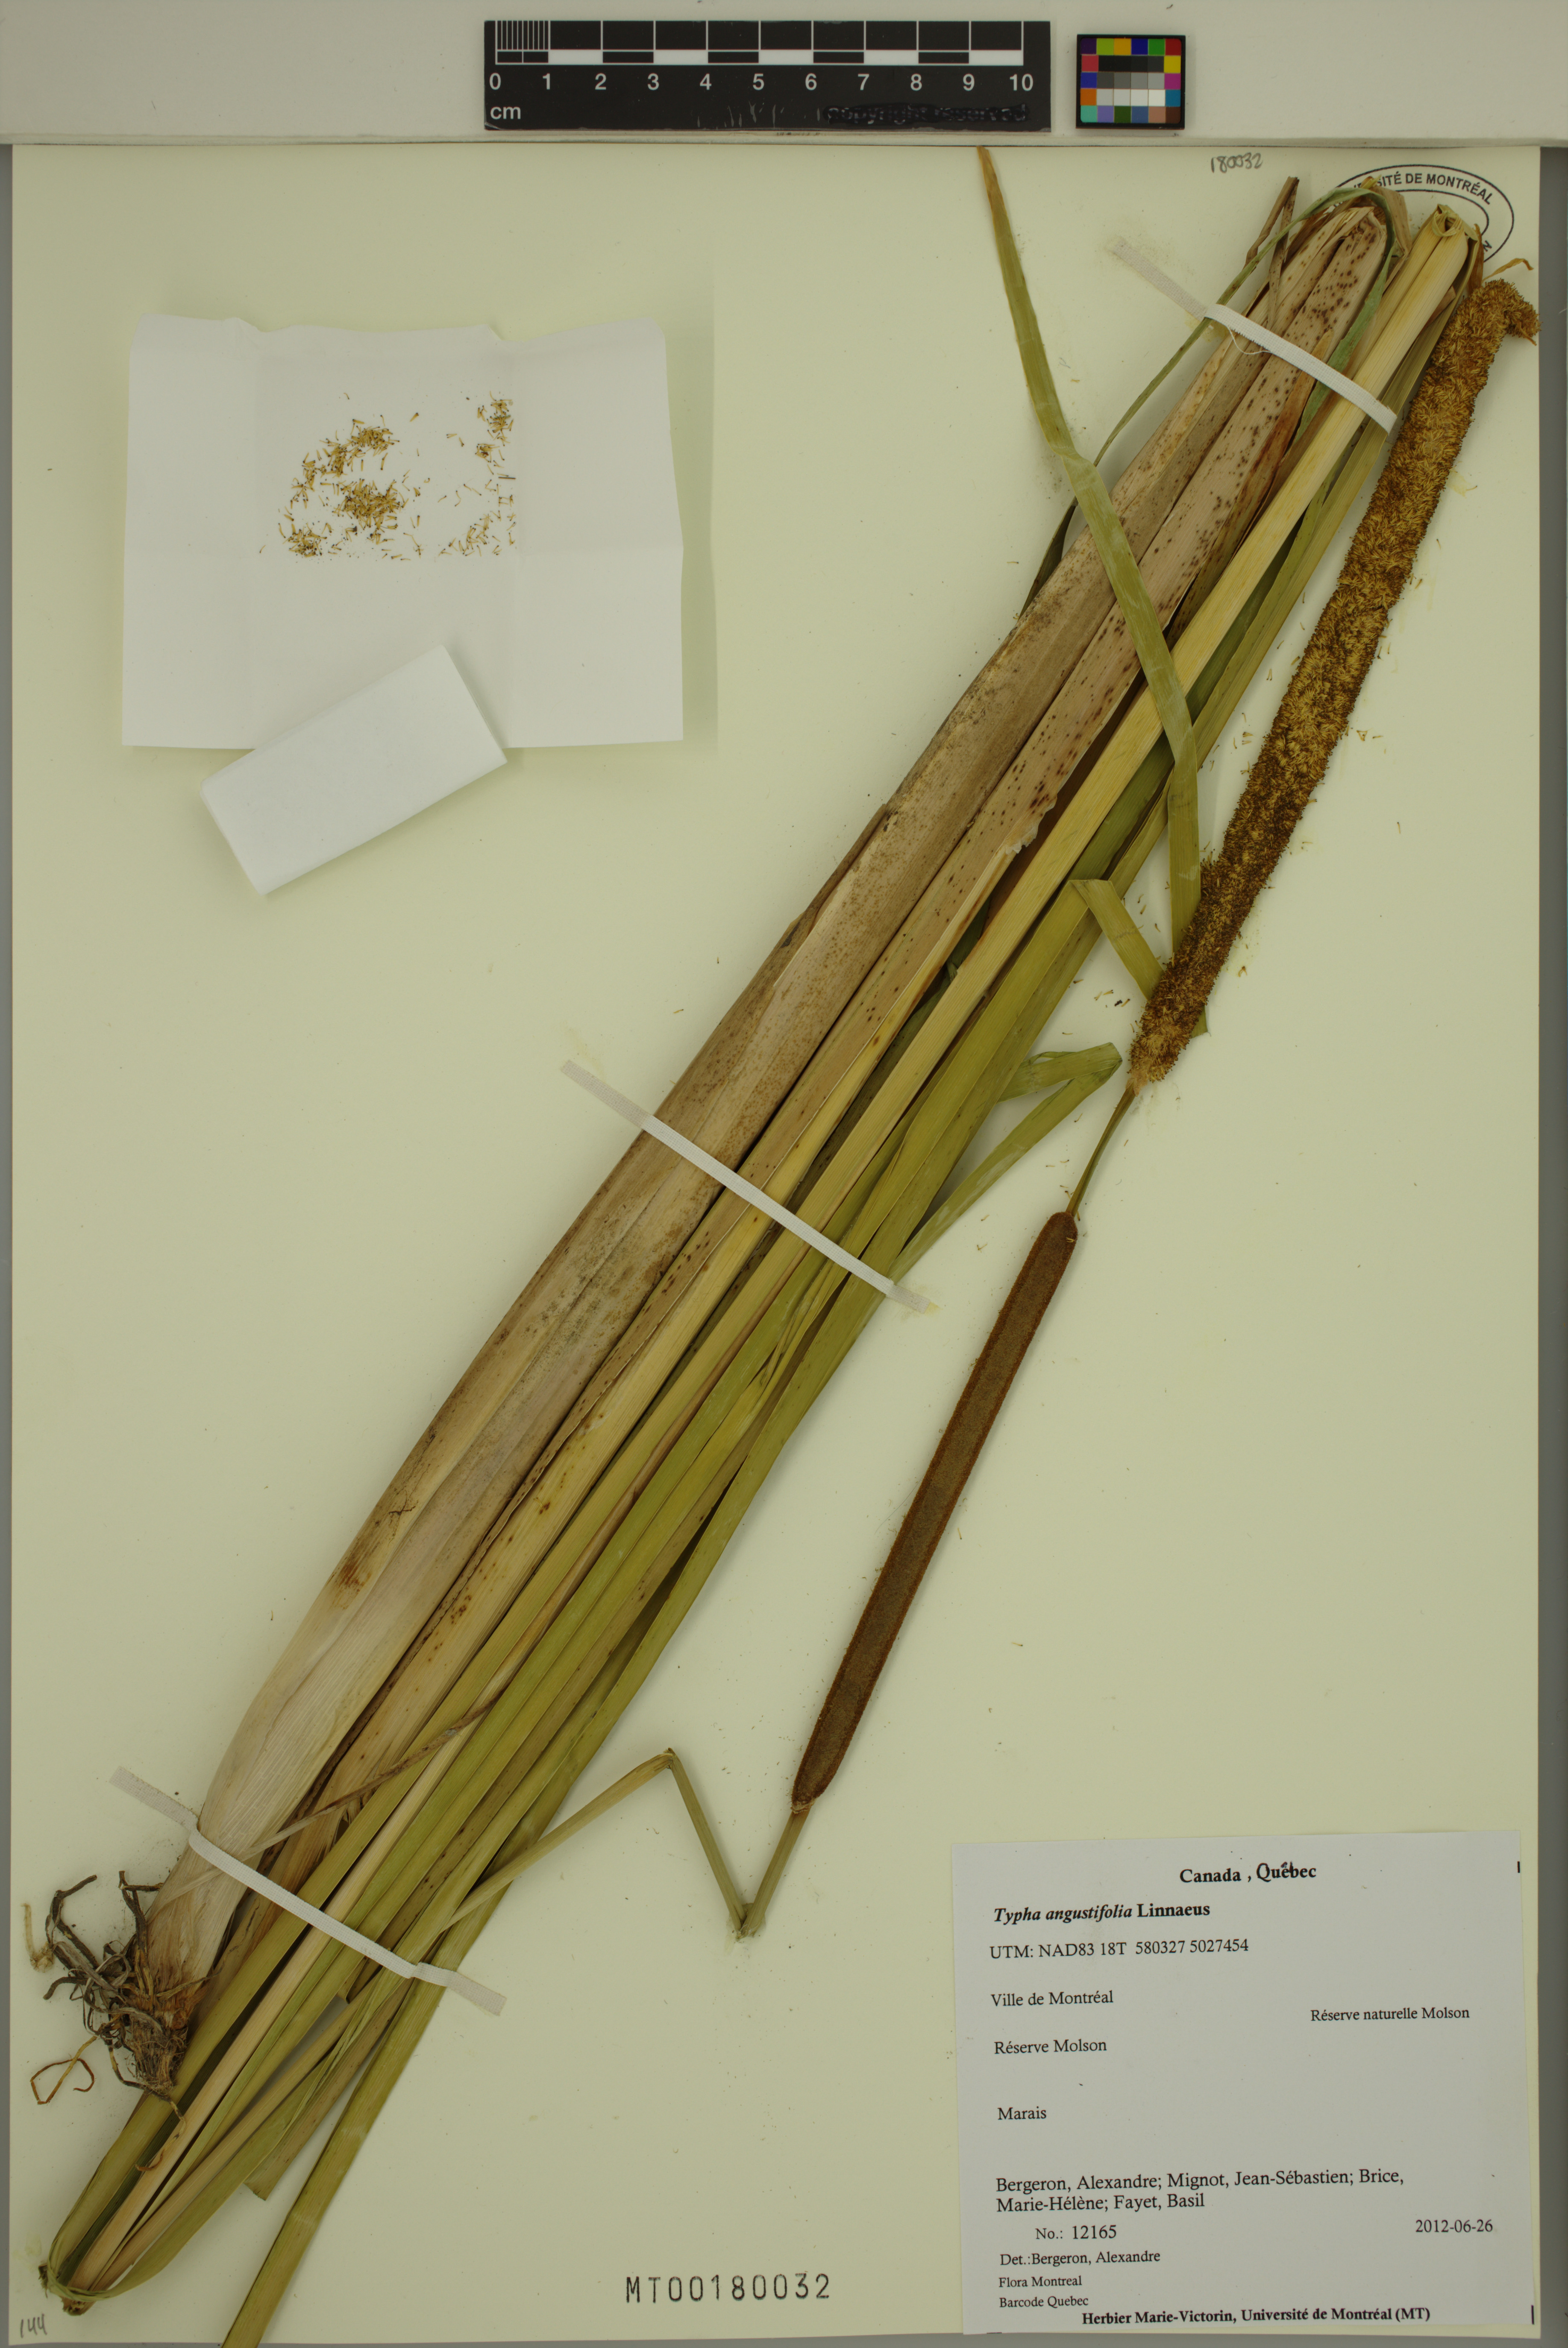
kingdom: Plantae
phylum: Tracheophyta
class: Liliopsida
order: Poales
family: Typhaceae
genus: Typha
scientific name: Typha angustifolia
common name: Lesser bulrush
